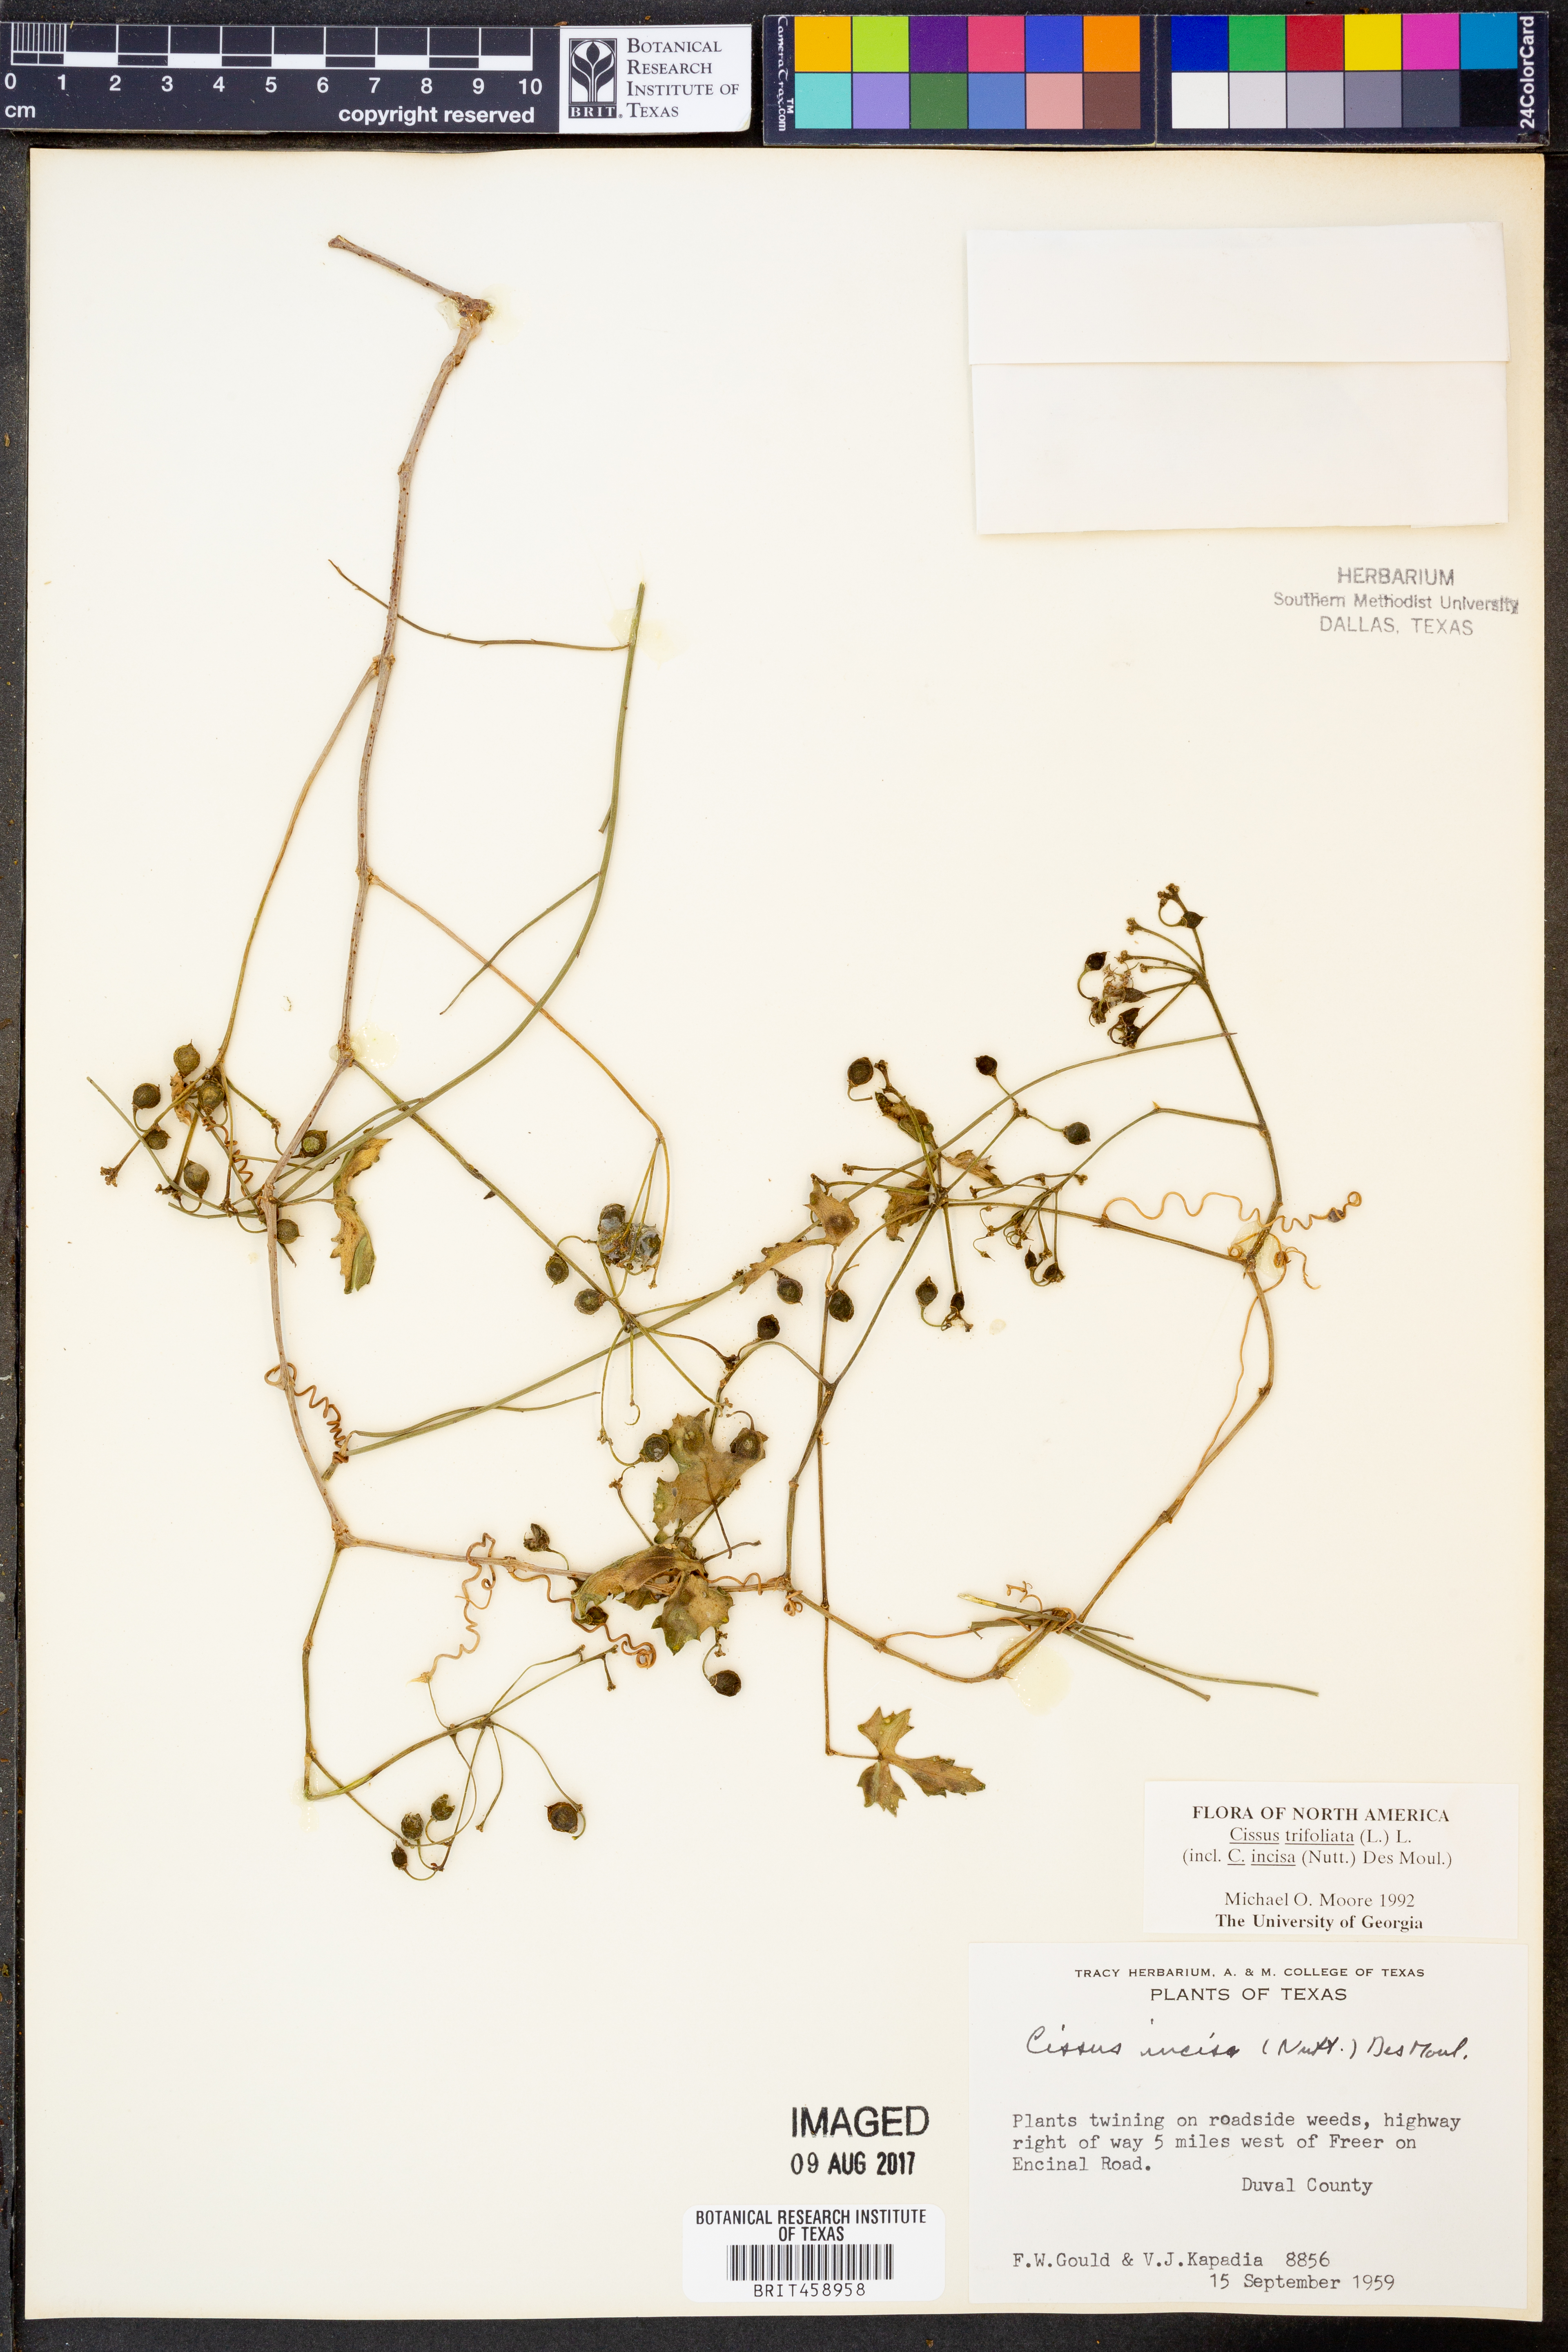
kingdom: Plantae
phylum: Tracheophyta
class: Magnoliopsida
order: Vitales
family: Vitaceae
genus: Cissus
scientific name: Cissus trifoliata
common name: Vine-sorrel
